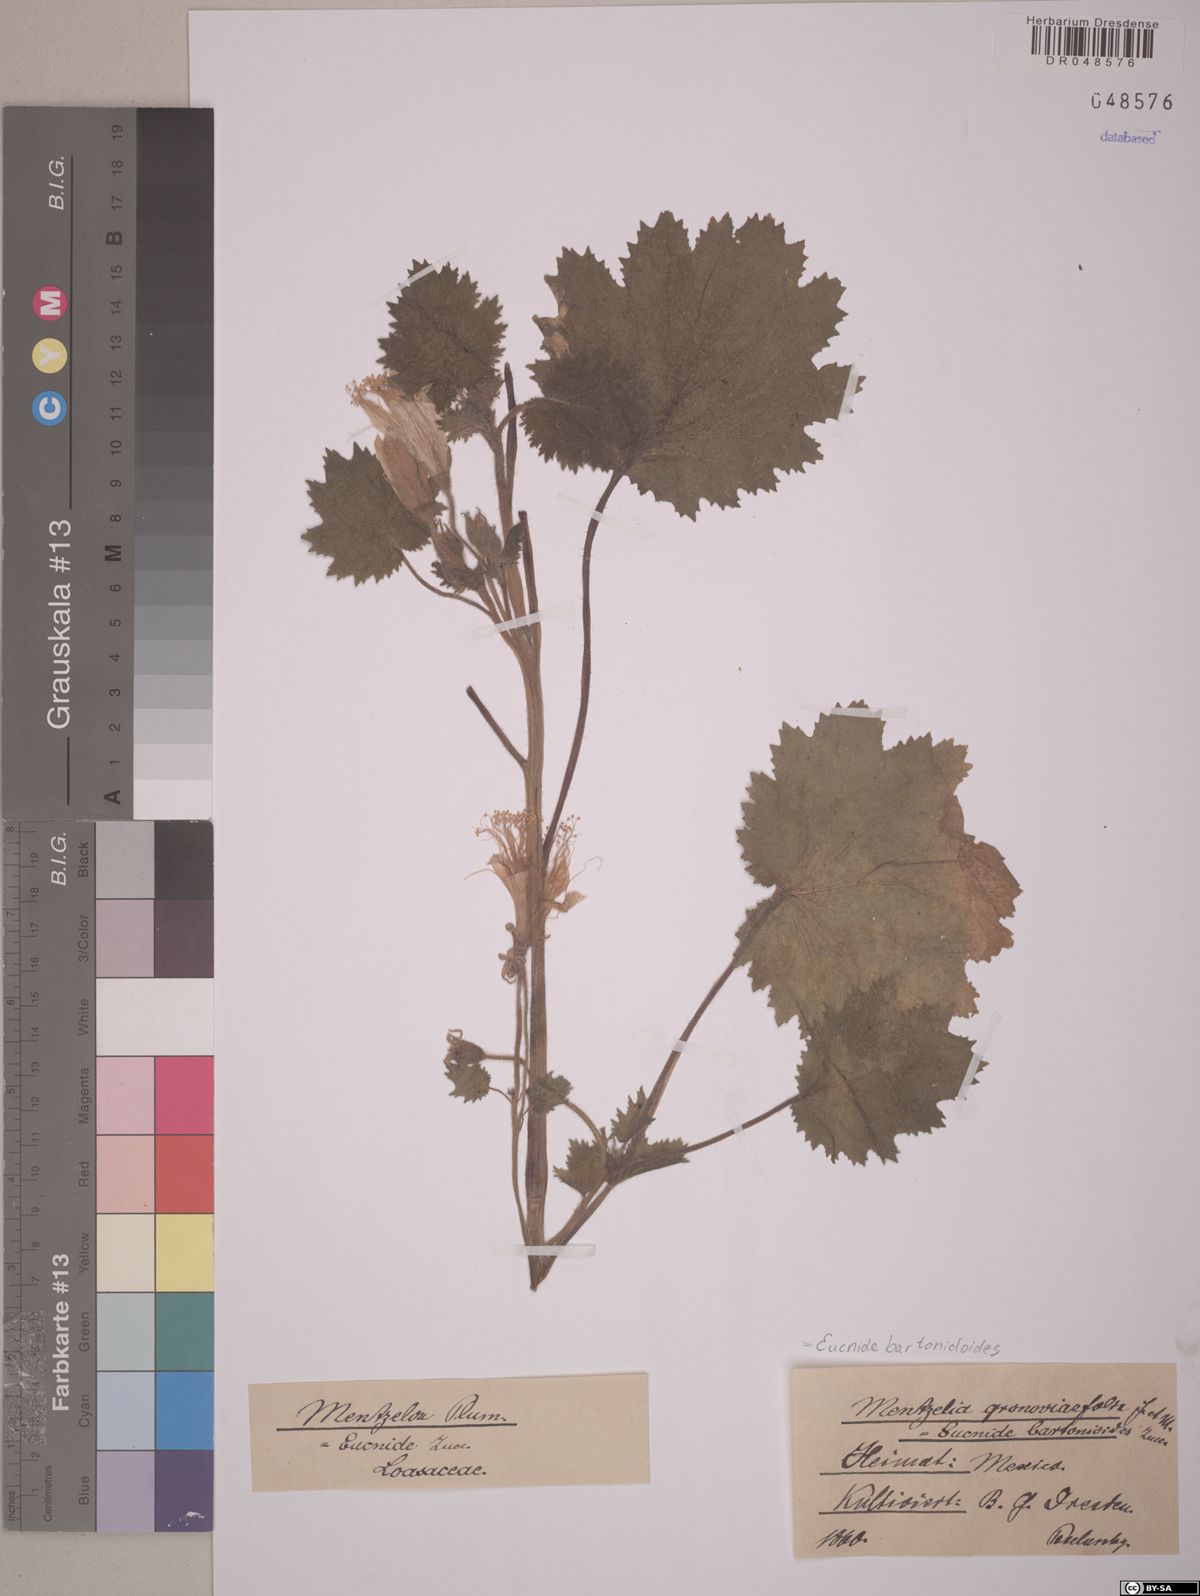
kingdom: Plantae
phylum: Tracheophyta
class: Magnoliopsida
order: Cornales
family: Loasaceae
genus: Eucnide
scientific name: Eucnide bartonioides
